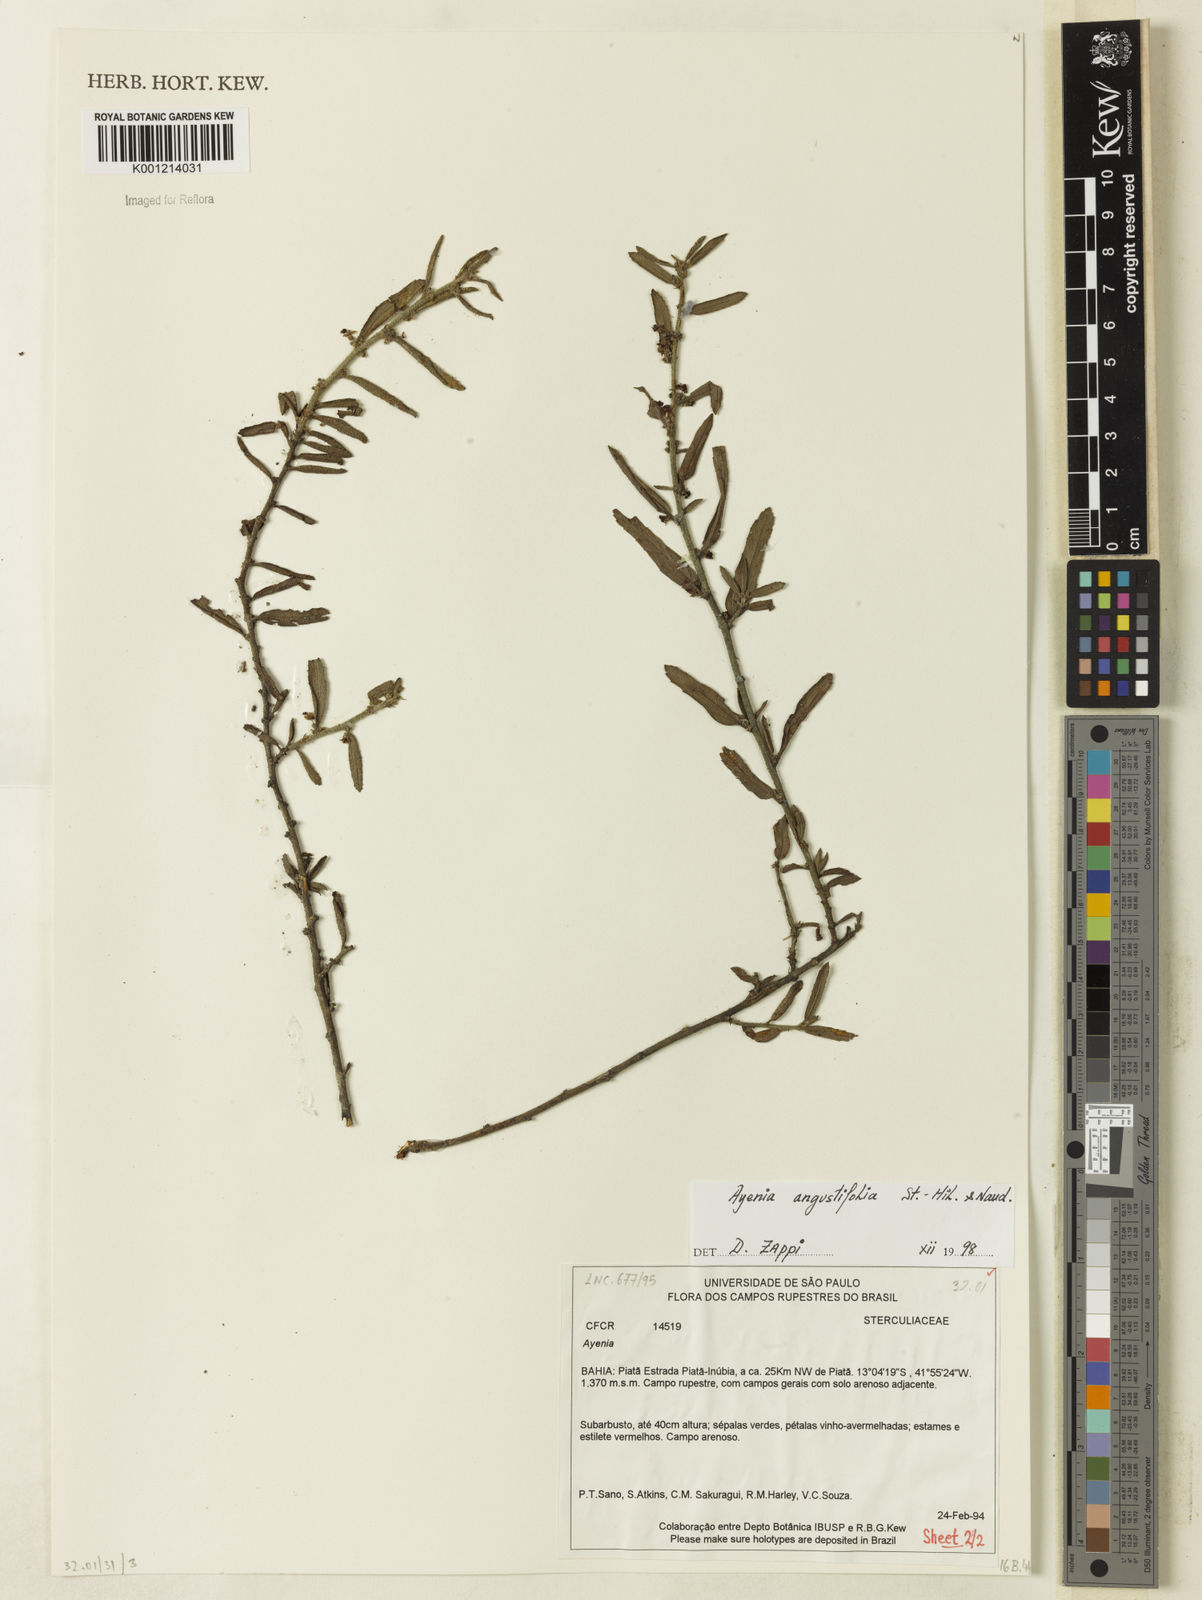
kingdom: Plantae
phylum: Tracheophyta
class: Magnoliopsida
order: Malvales
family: Malvaceae
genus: Ayenia
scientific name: Ayenia angustifolia
